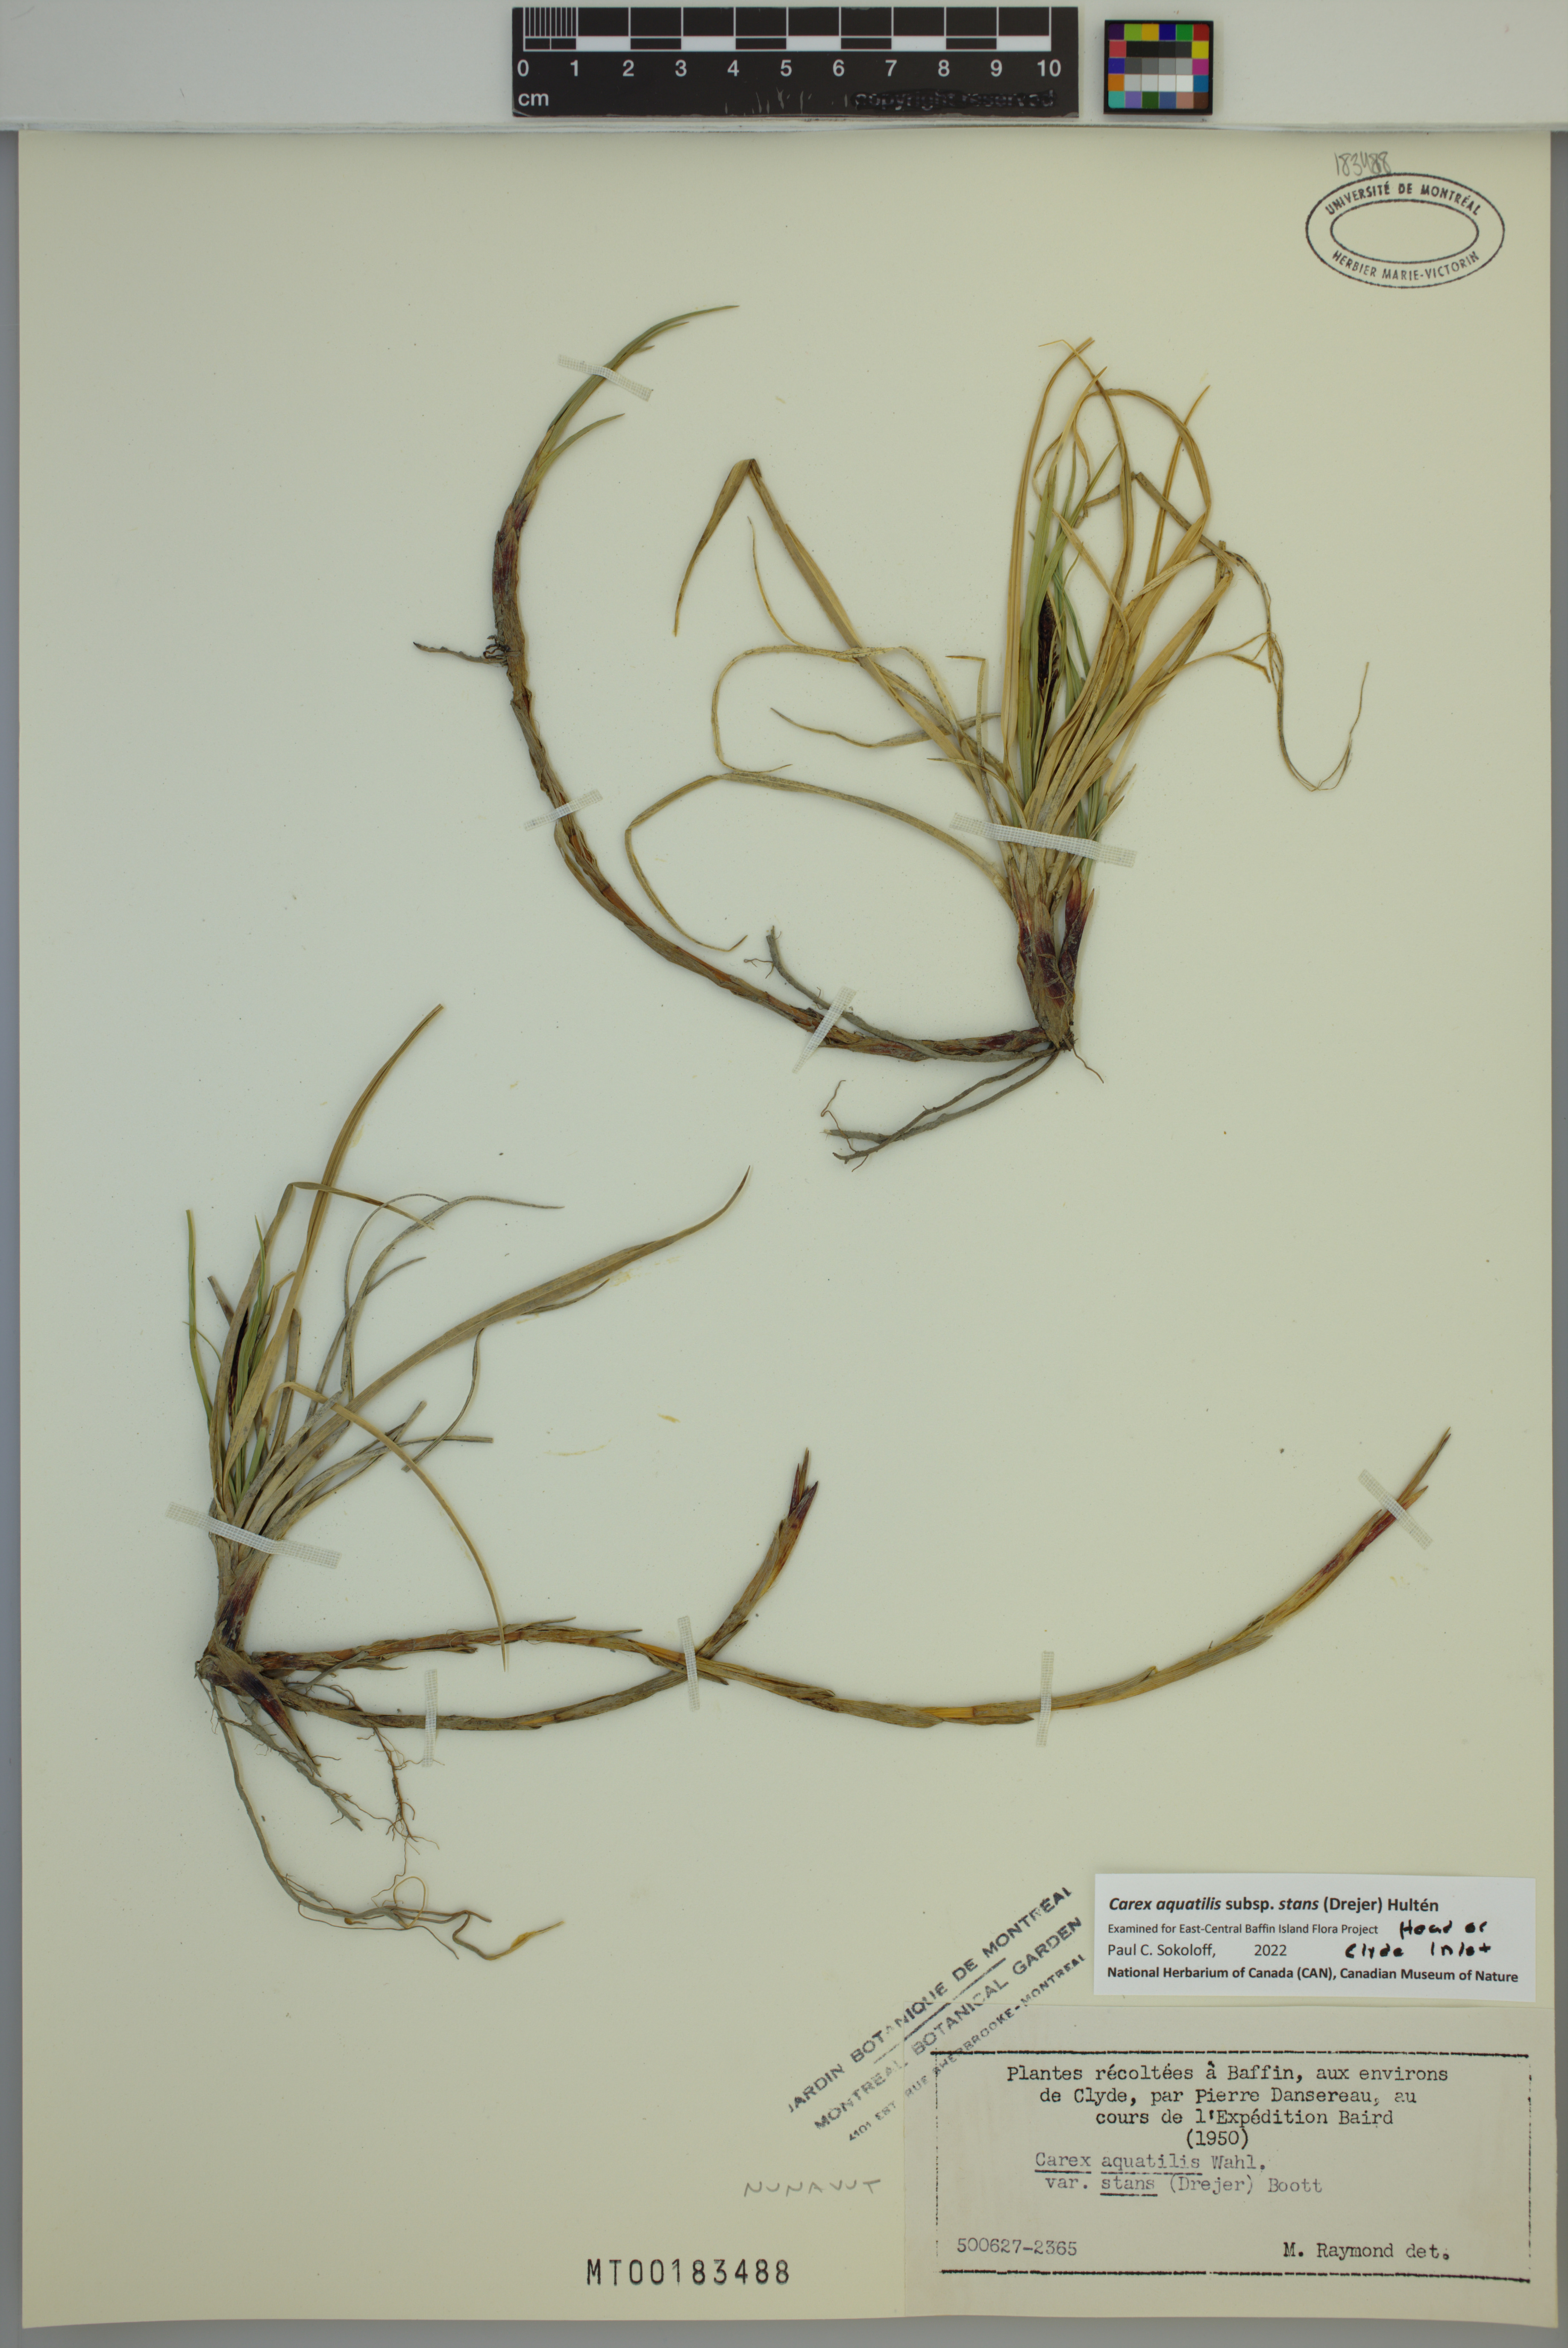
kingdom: Plantae
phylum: Tracheophyta
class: Liliopsida
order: Poales
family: Cyperaceae
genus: Carex
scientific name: Carex aquatilis
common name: Water sedge
